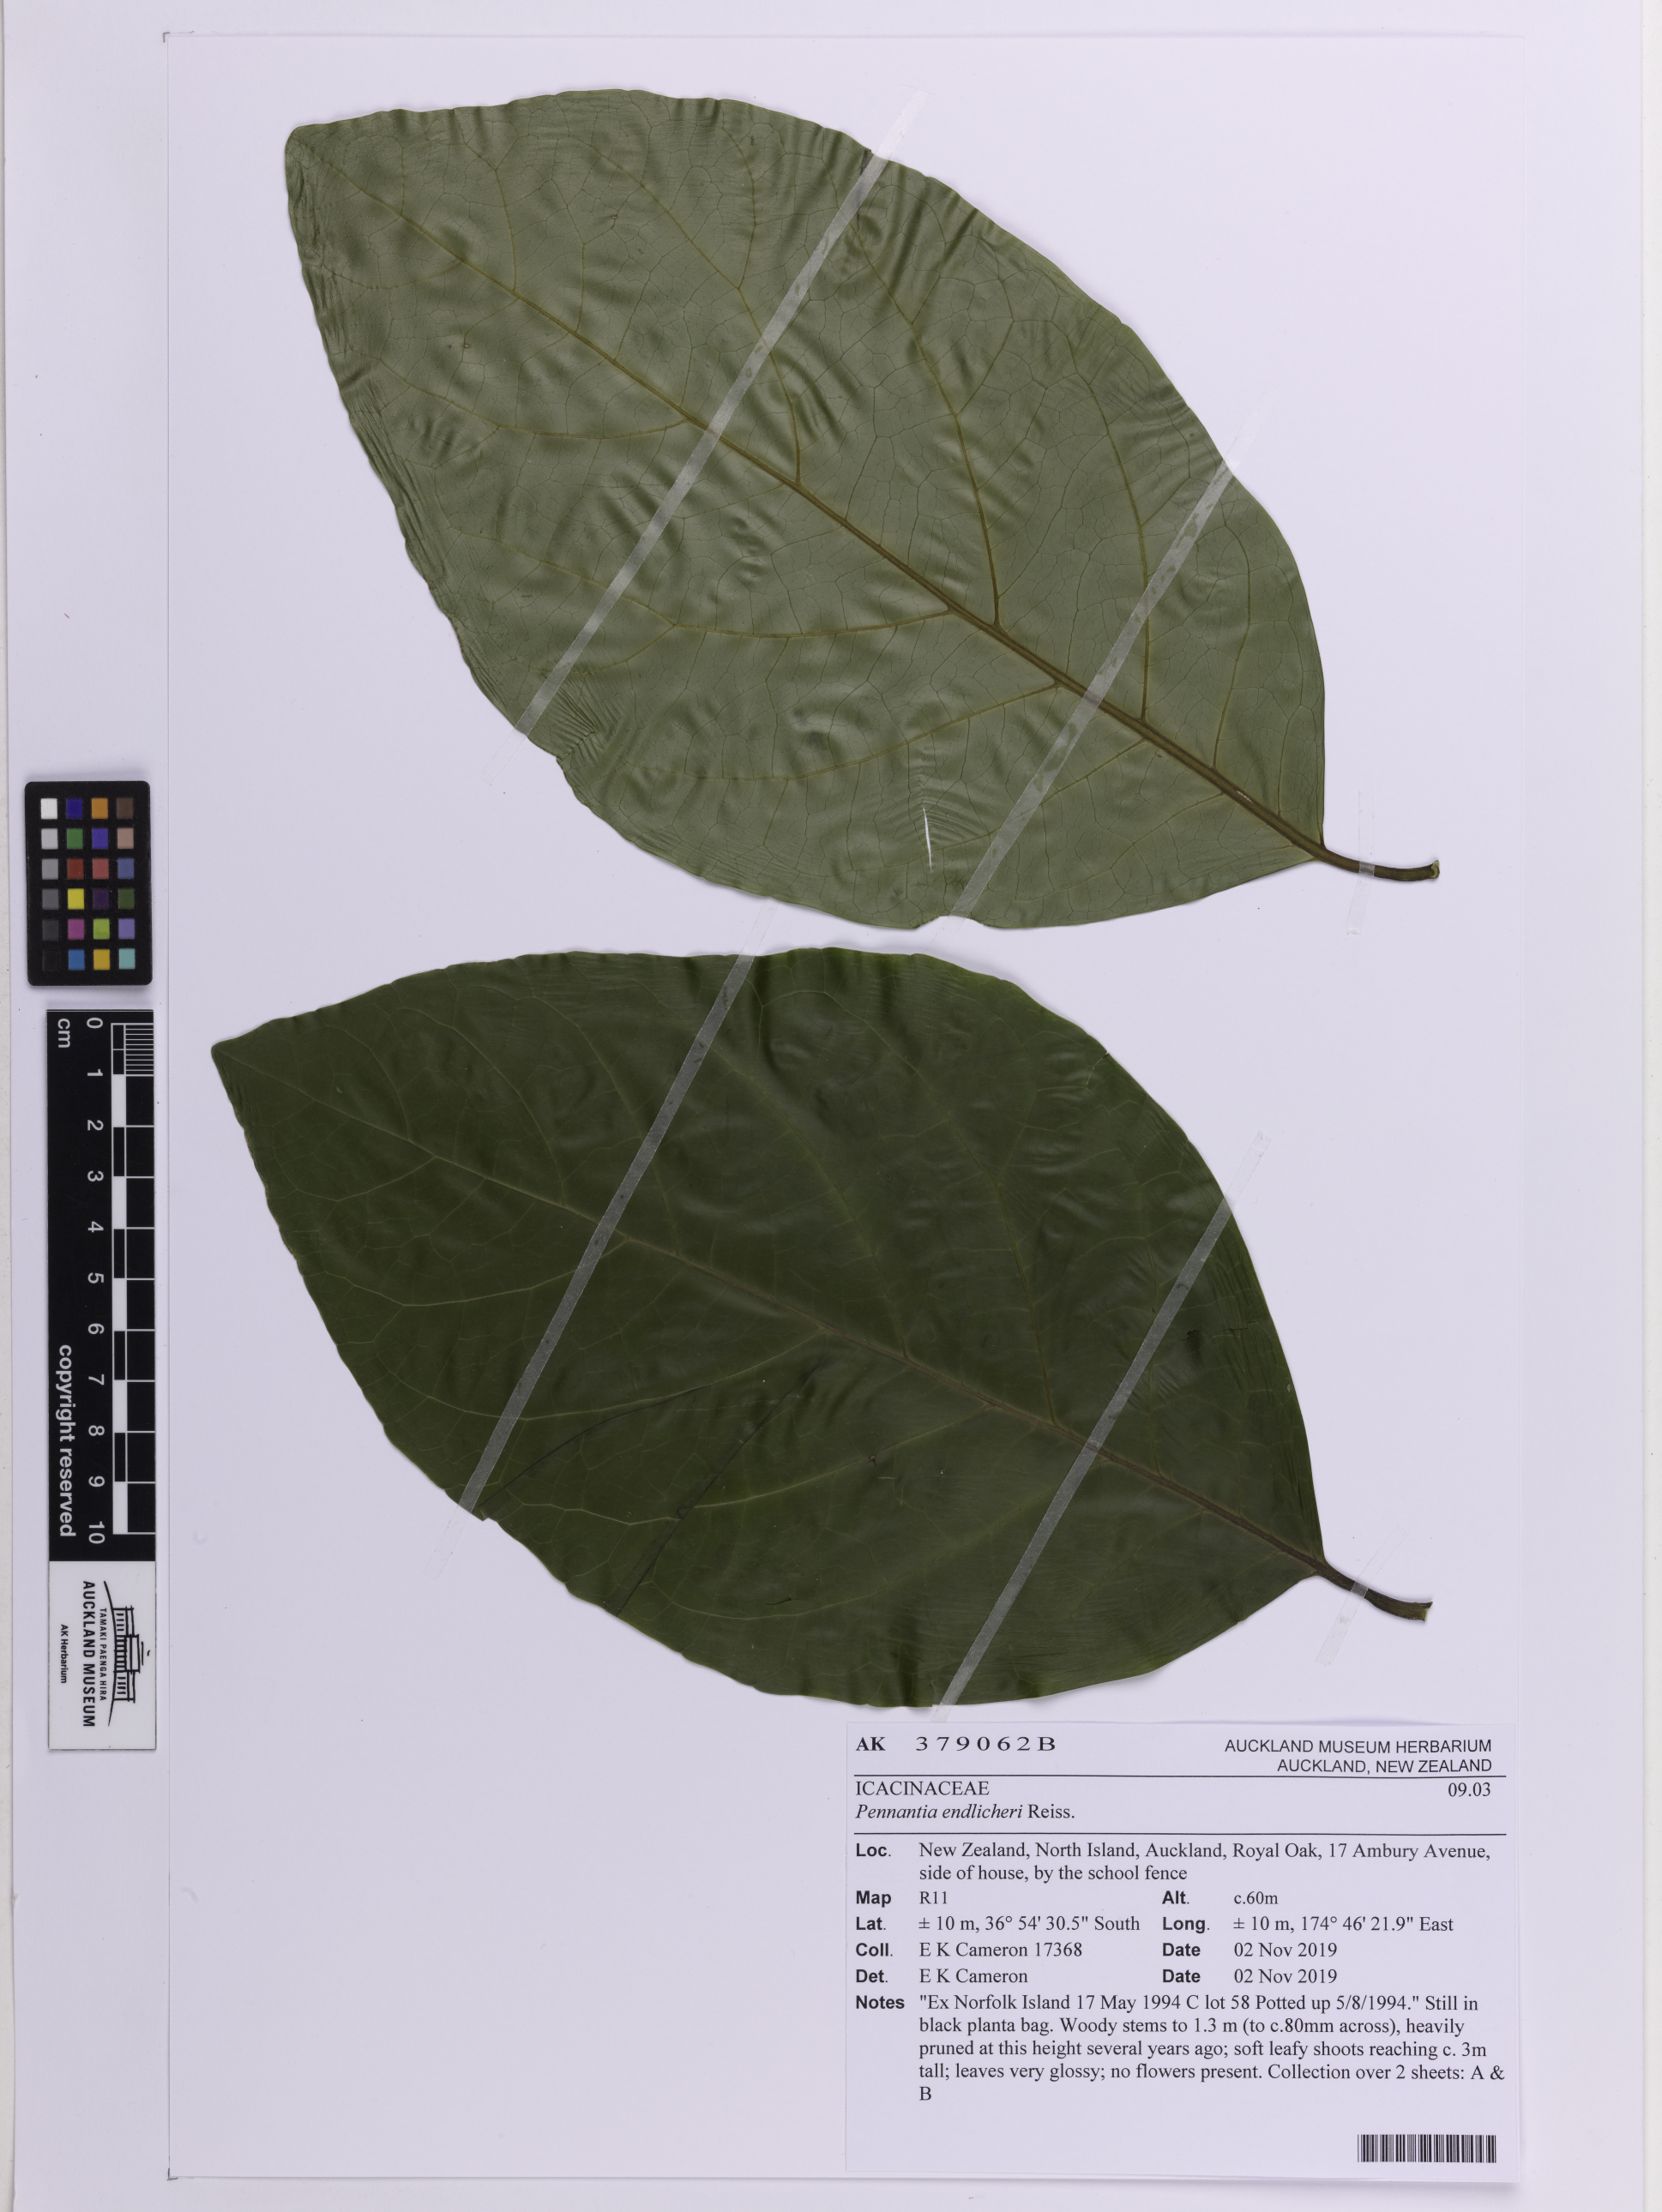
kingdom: Plantae
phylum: Tracheophyta
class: Magnoliopsida
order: Apiales
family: Pennantiaceae
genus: Pennantia
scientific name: Pennantia endlicheri
